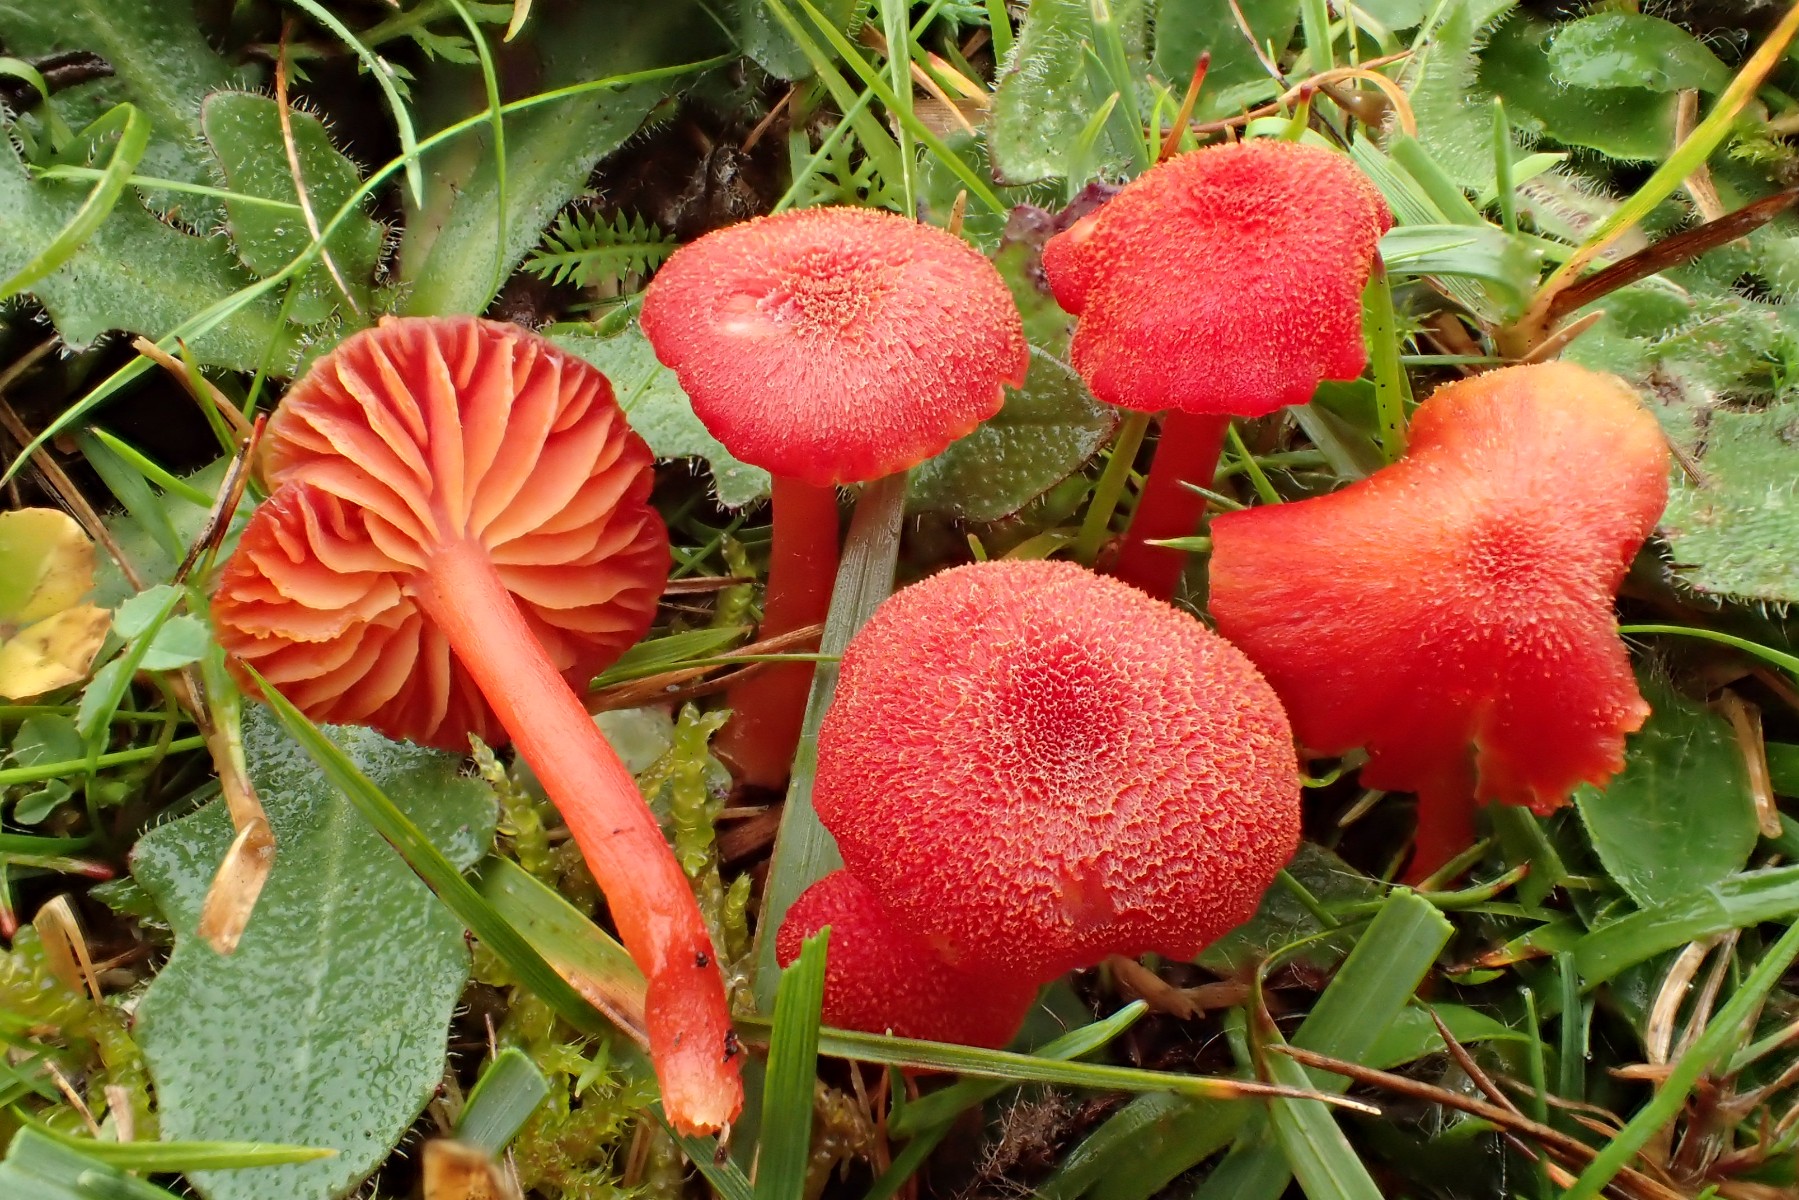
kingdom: Fungi
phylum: Basidiomycota
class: Agaricomycetes
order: Agaricales
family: Hygrophoraceae
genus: Hygrocybe
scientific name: Hygrocybe helobia
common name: hvidløgs-vokshat
